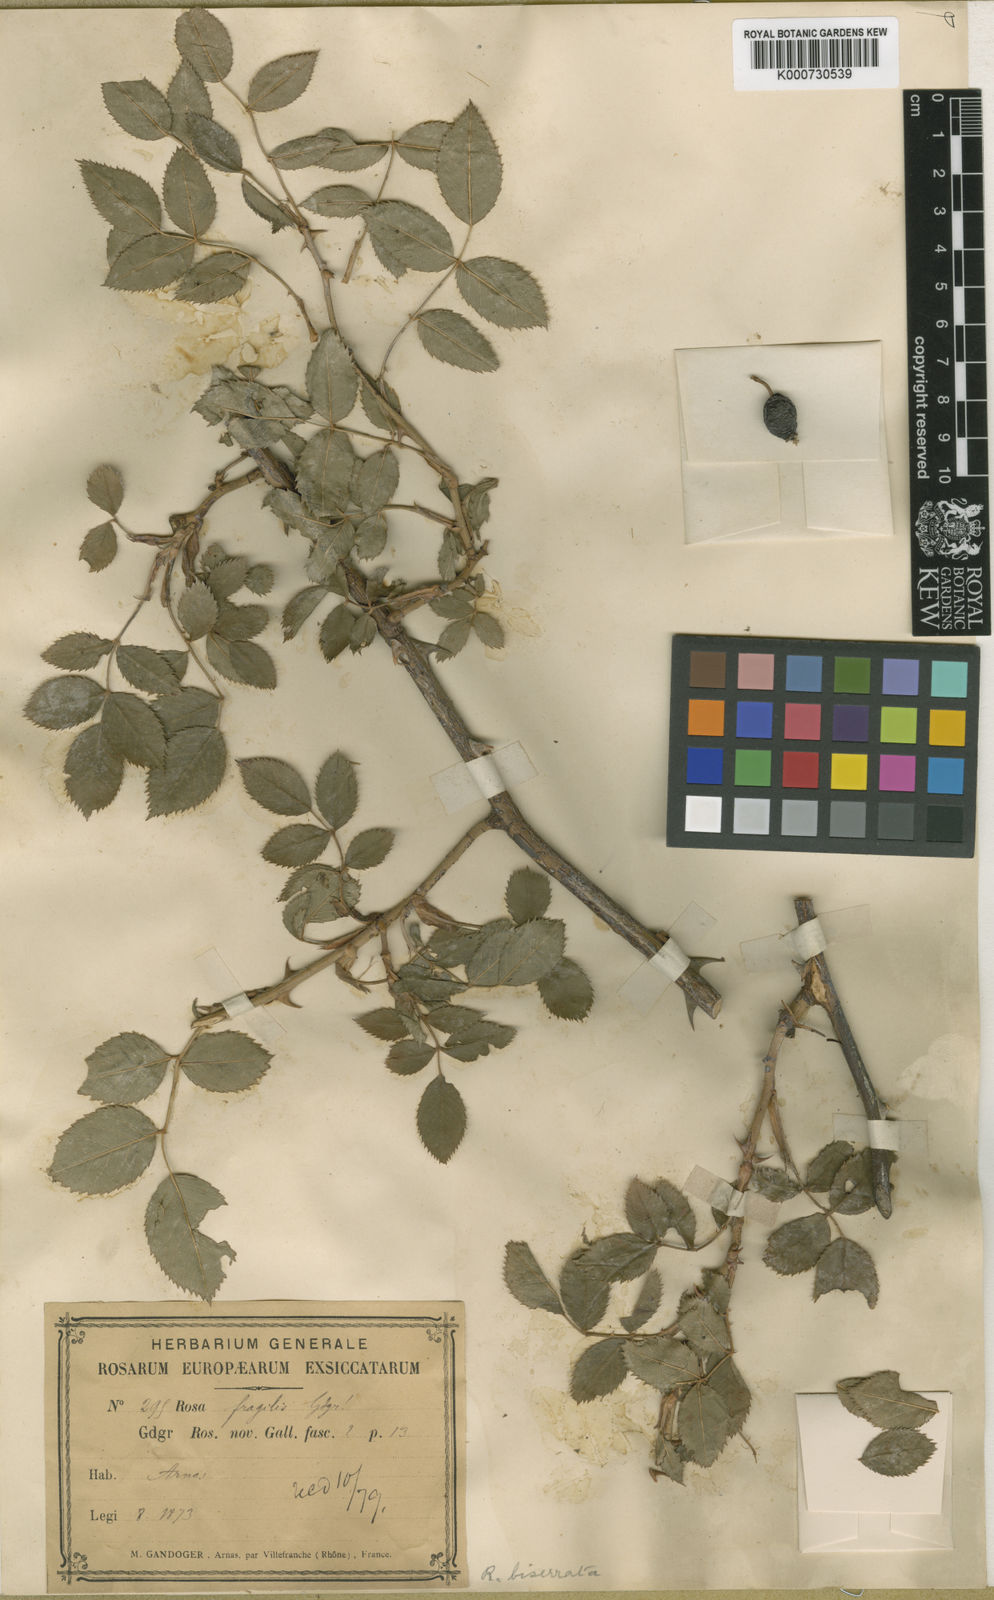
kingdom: Plantae
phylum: Tracheophyta
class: Magnoliopsida
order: Rosales
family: Rosaceae
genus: Rosa
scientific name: Rosa canina
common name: Dog rose
